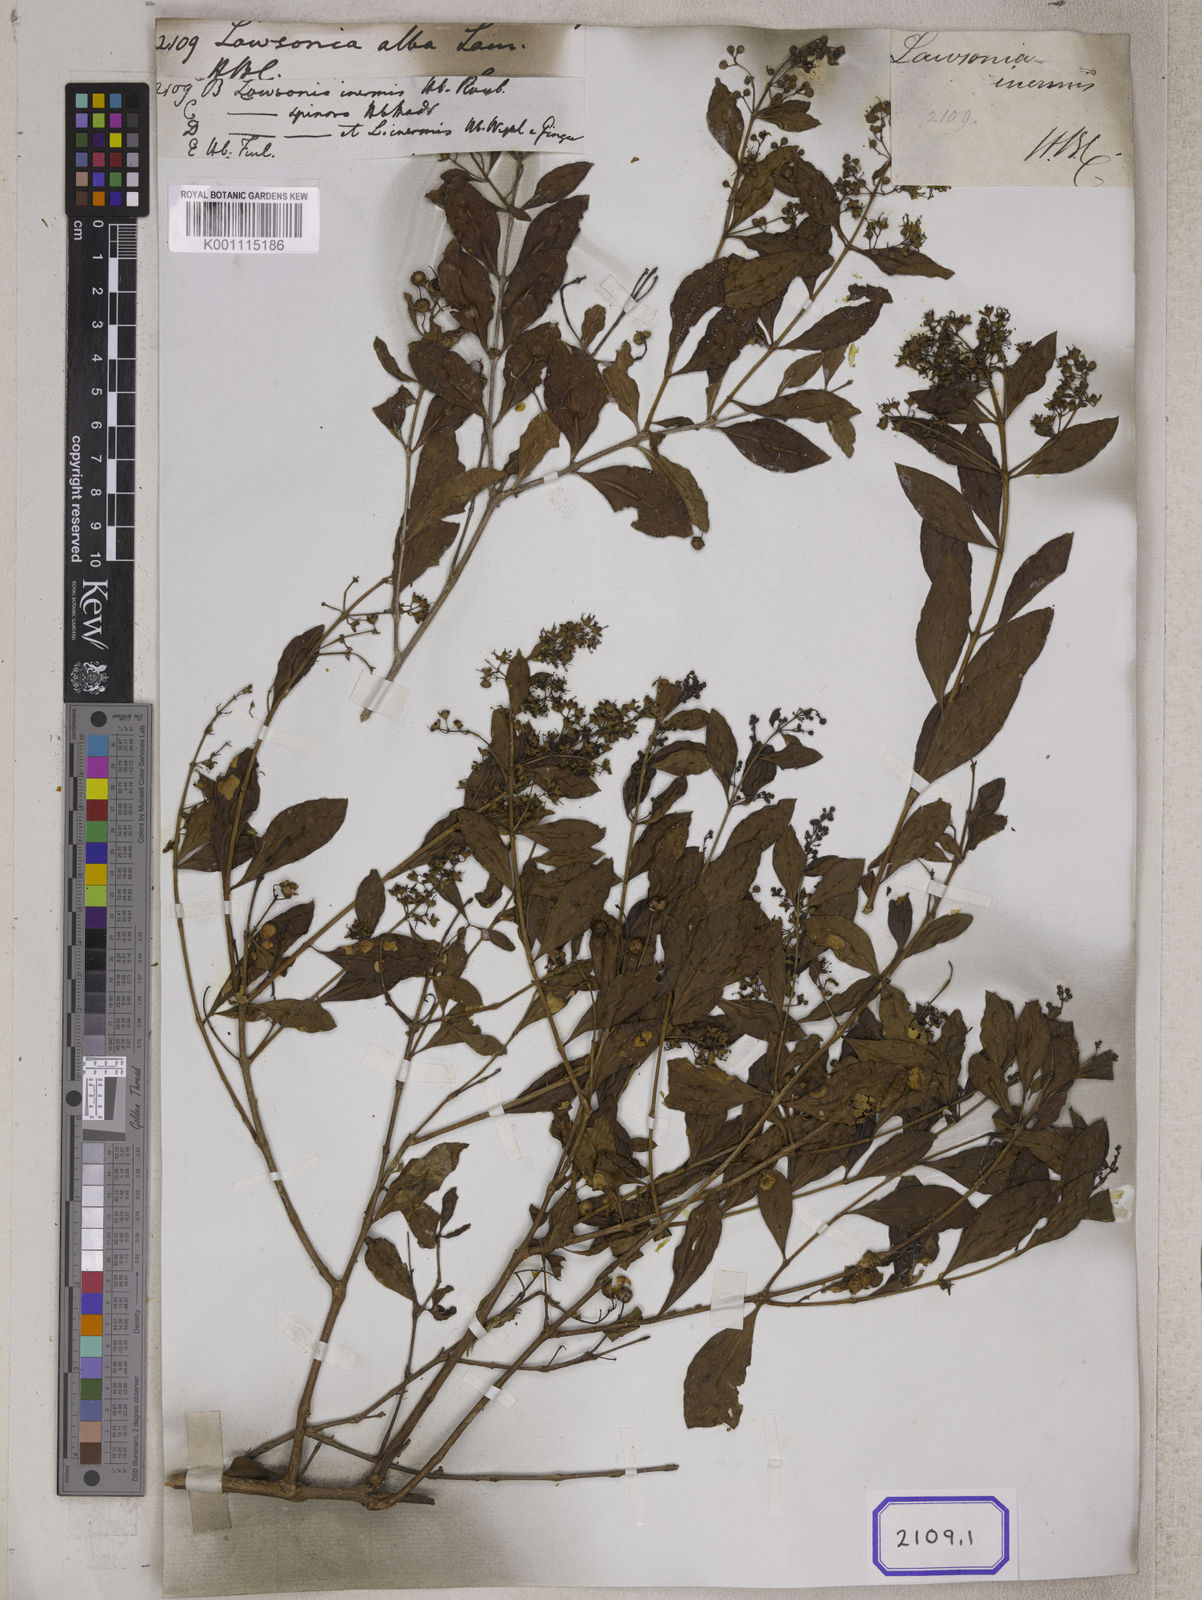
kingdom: Plantae
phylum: Tracheophyta
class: Magnoliopsida
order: Myrtales
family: Lythraceae
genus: Lawsonia
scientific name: Lawsonia inermis
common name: Henna
